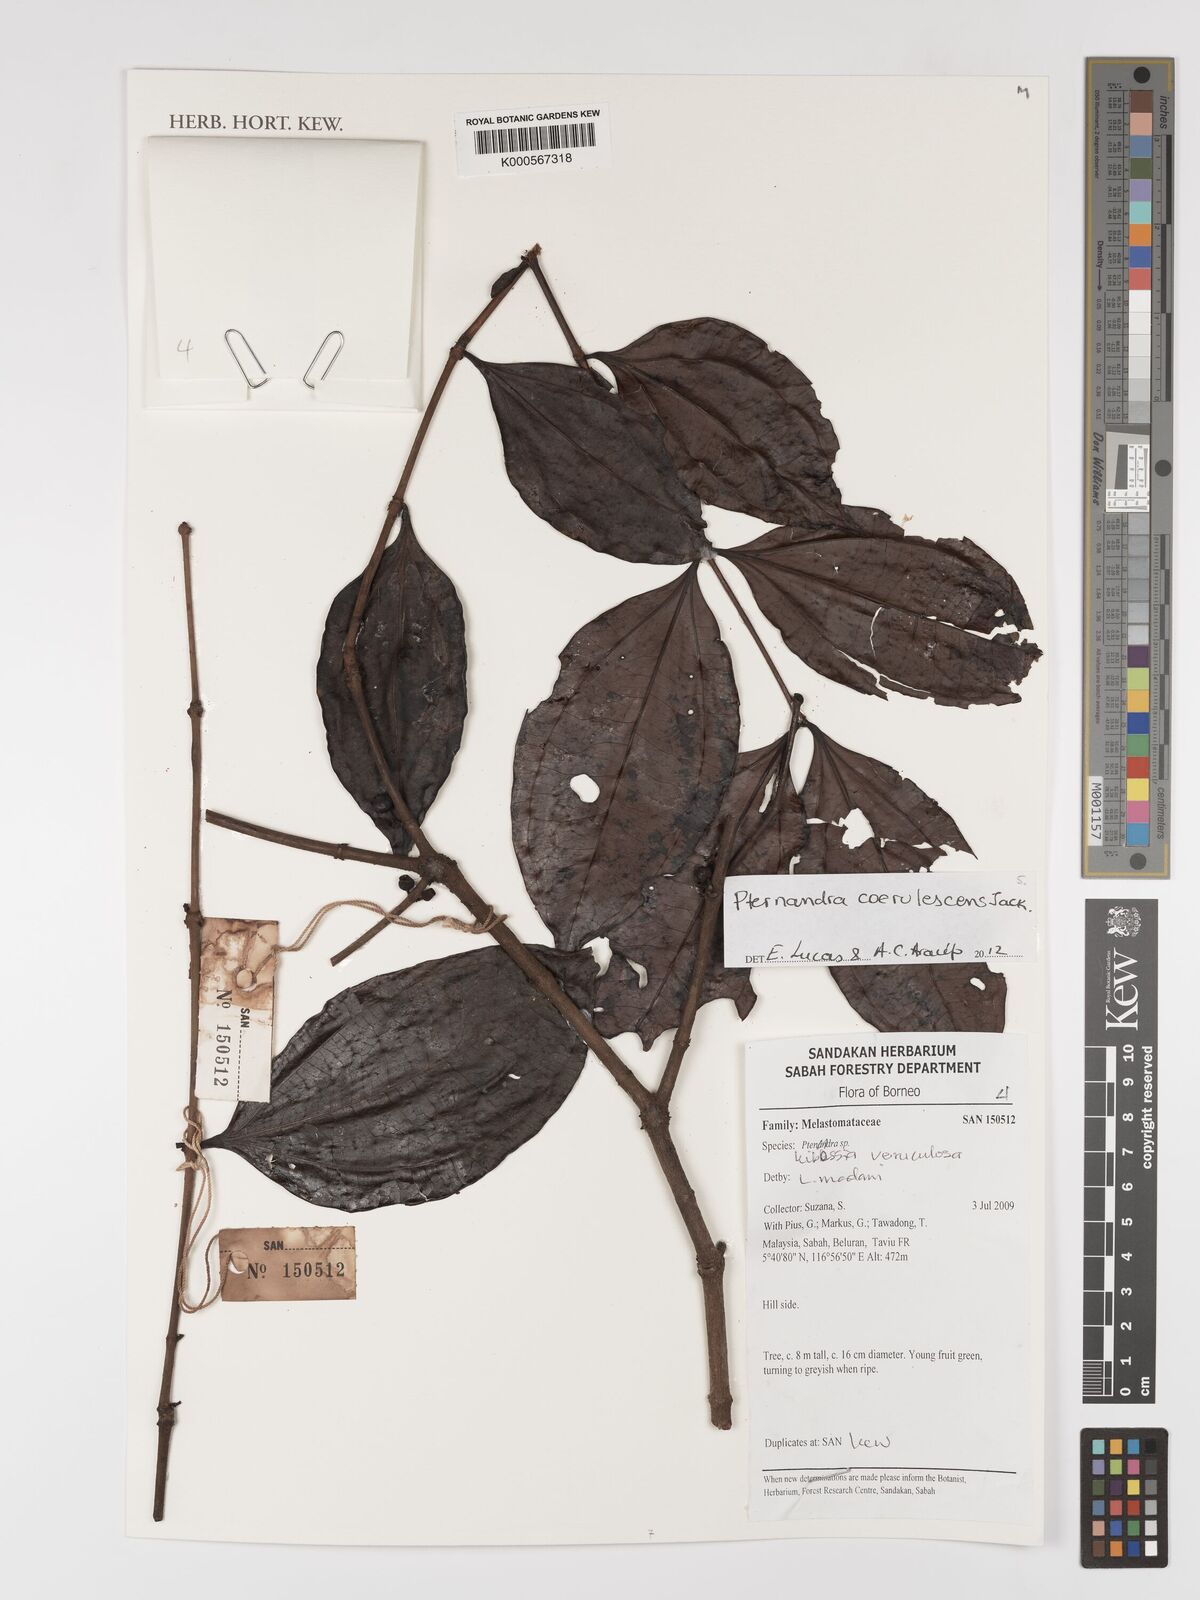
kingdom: Plantae
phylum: Tracheophyta
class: Magnoliopsida
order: Myrtales
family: Melastomataceae
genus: Pternandra
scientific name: Pternandra
